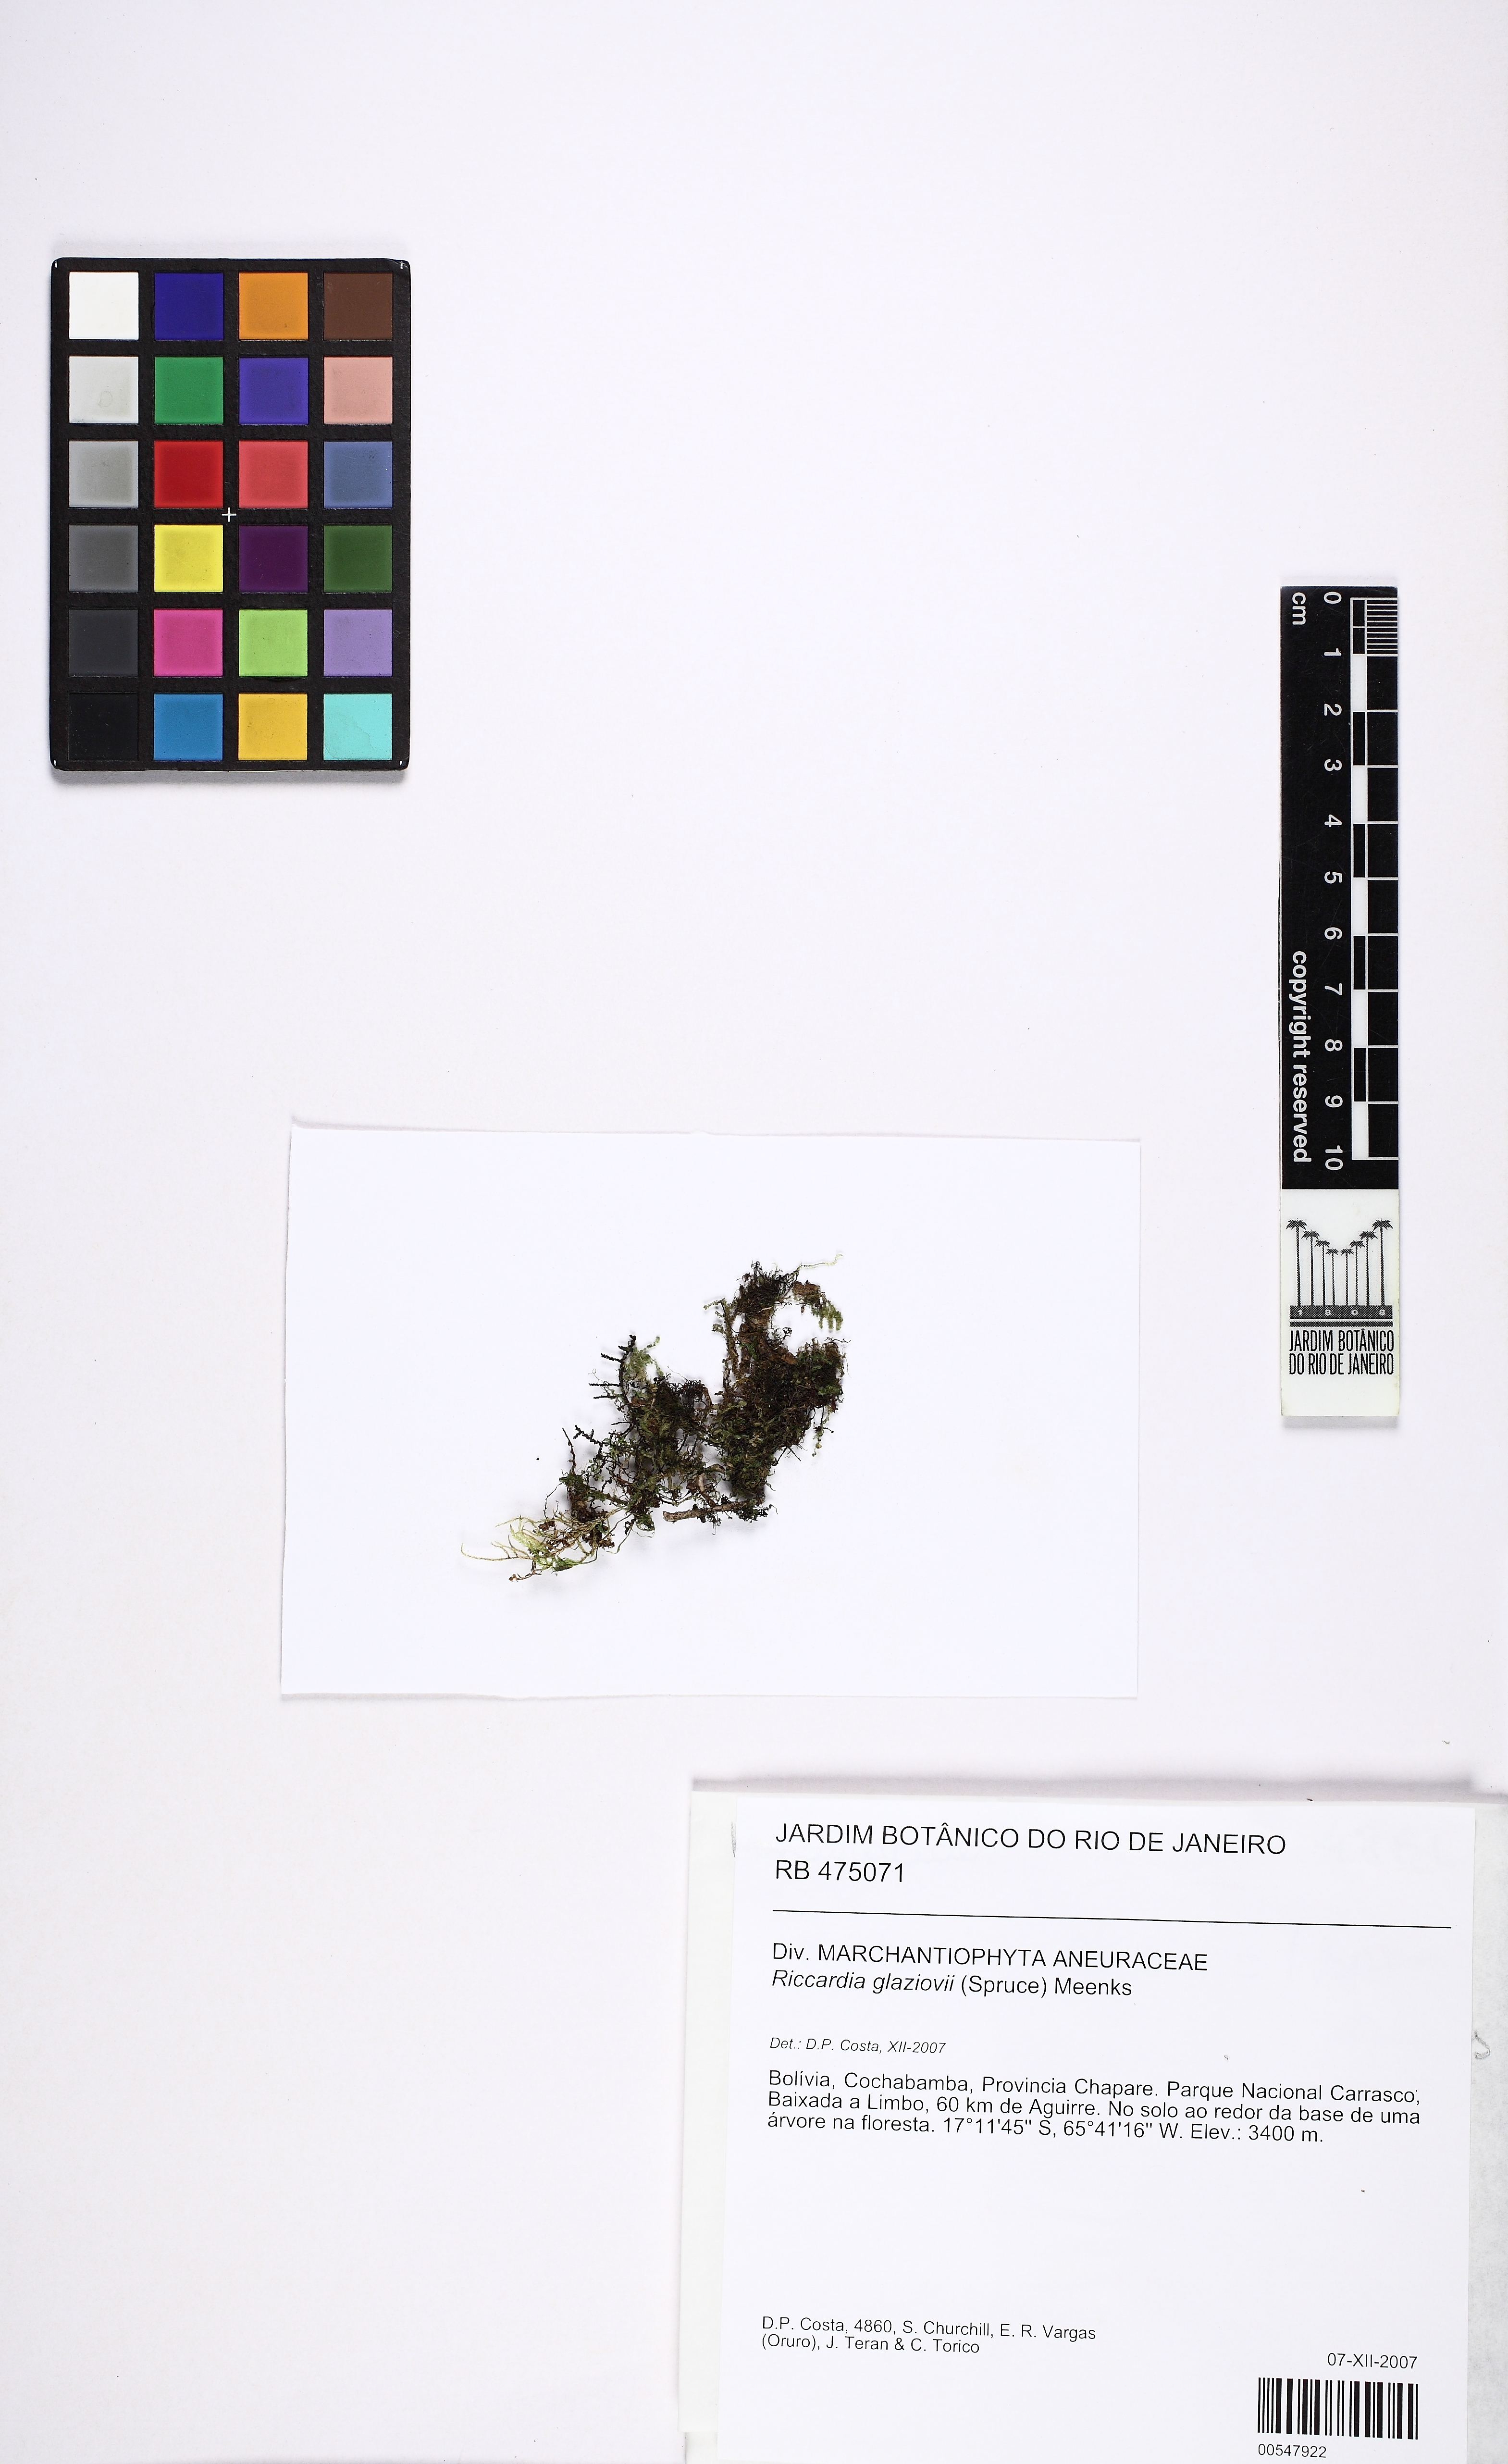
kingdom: Plantae
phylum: Marchantiophyta
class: Jungermanniopsida
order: Metzgeriales
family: Aneuraceae
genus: Riccardia
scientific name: Riccardia glaziovii
